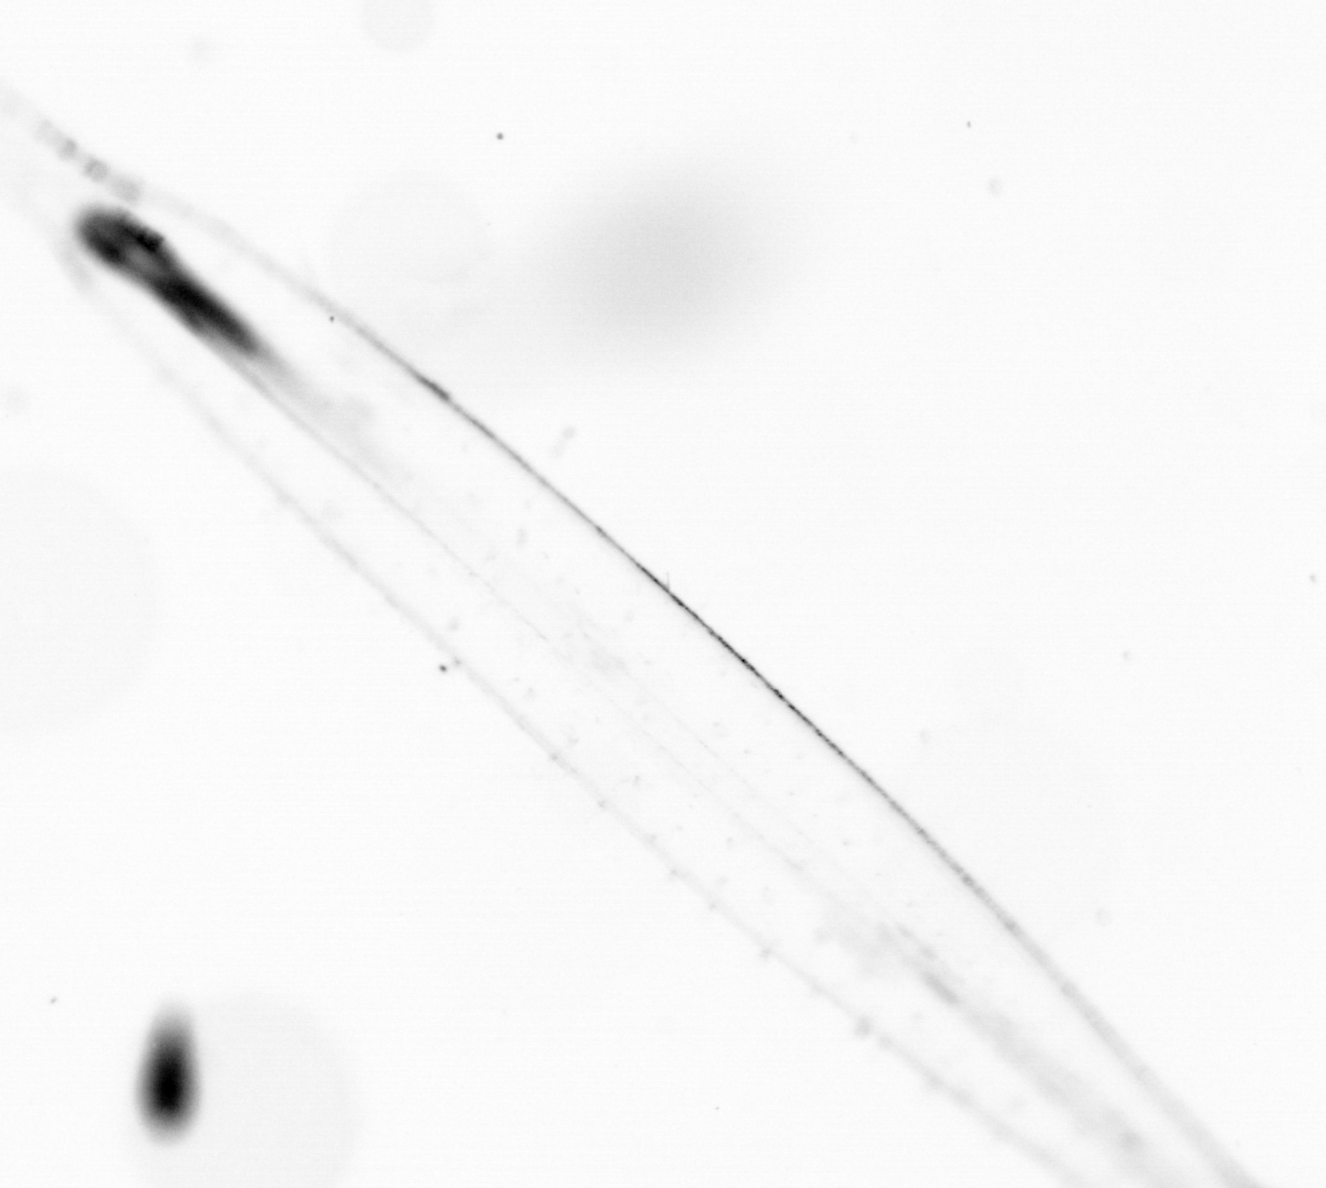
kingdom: Animalia
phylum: Chaetognatha
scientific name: Chaetognatha
